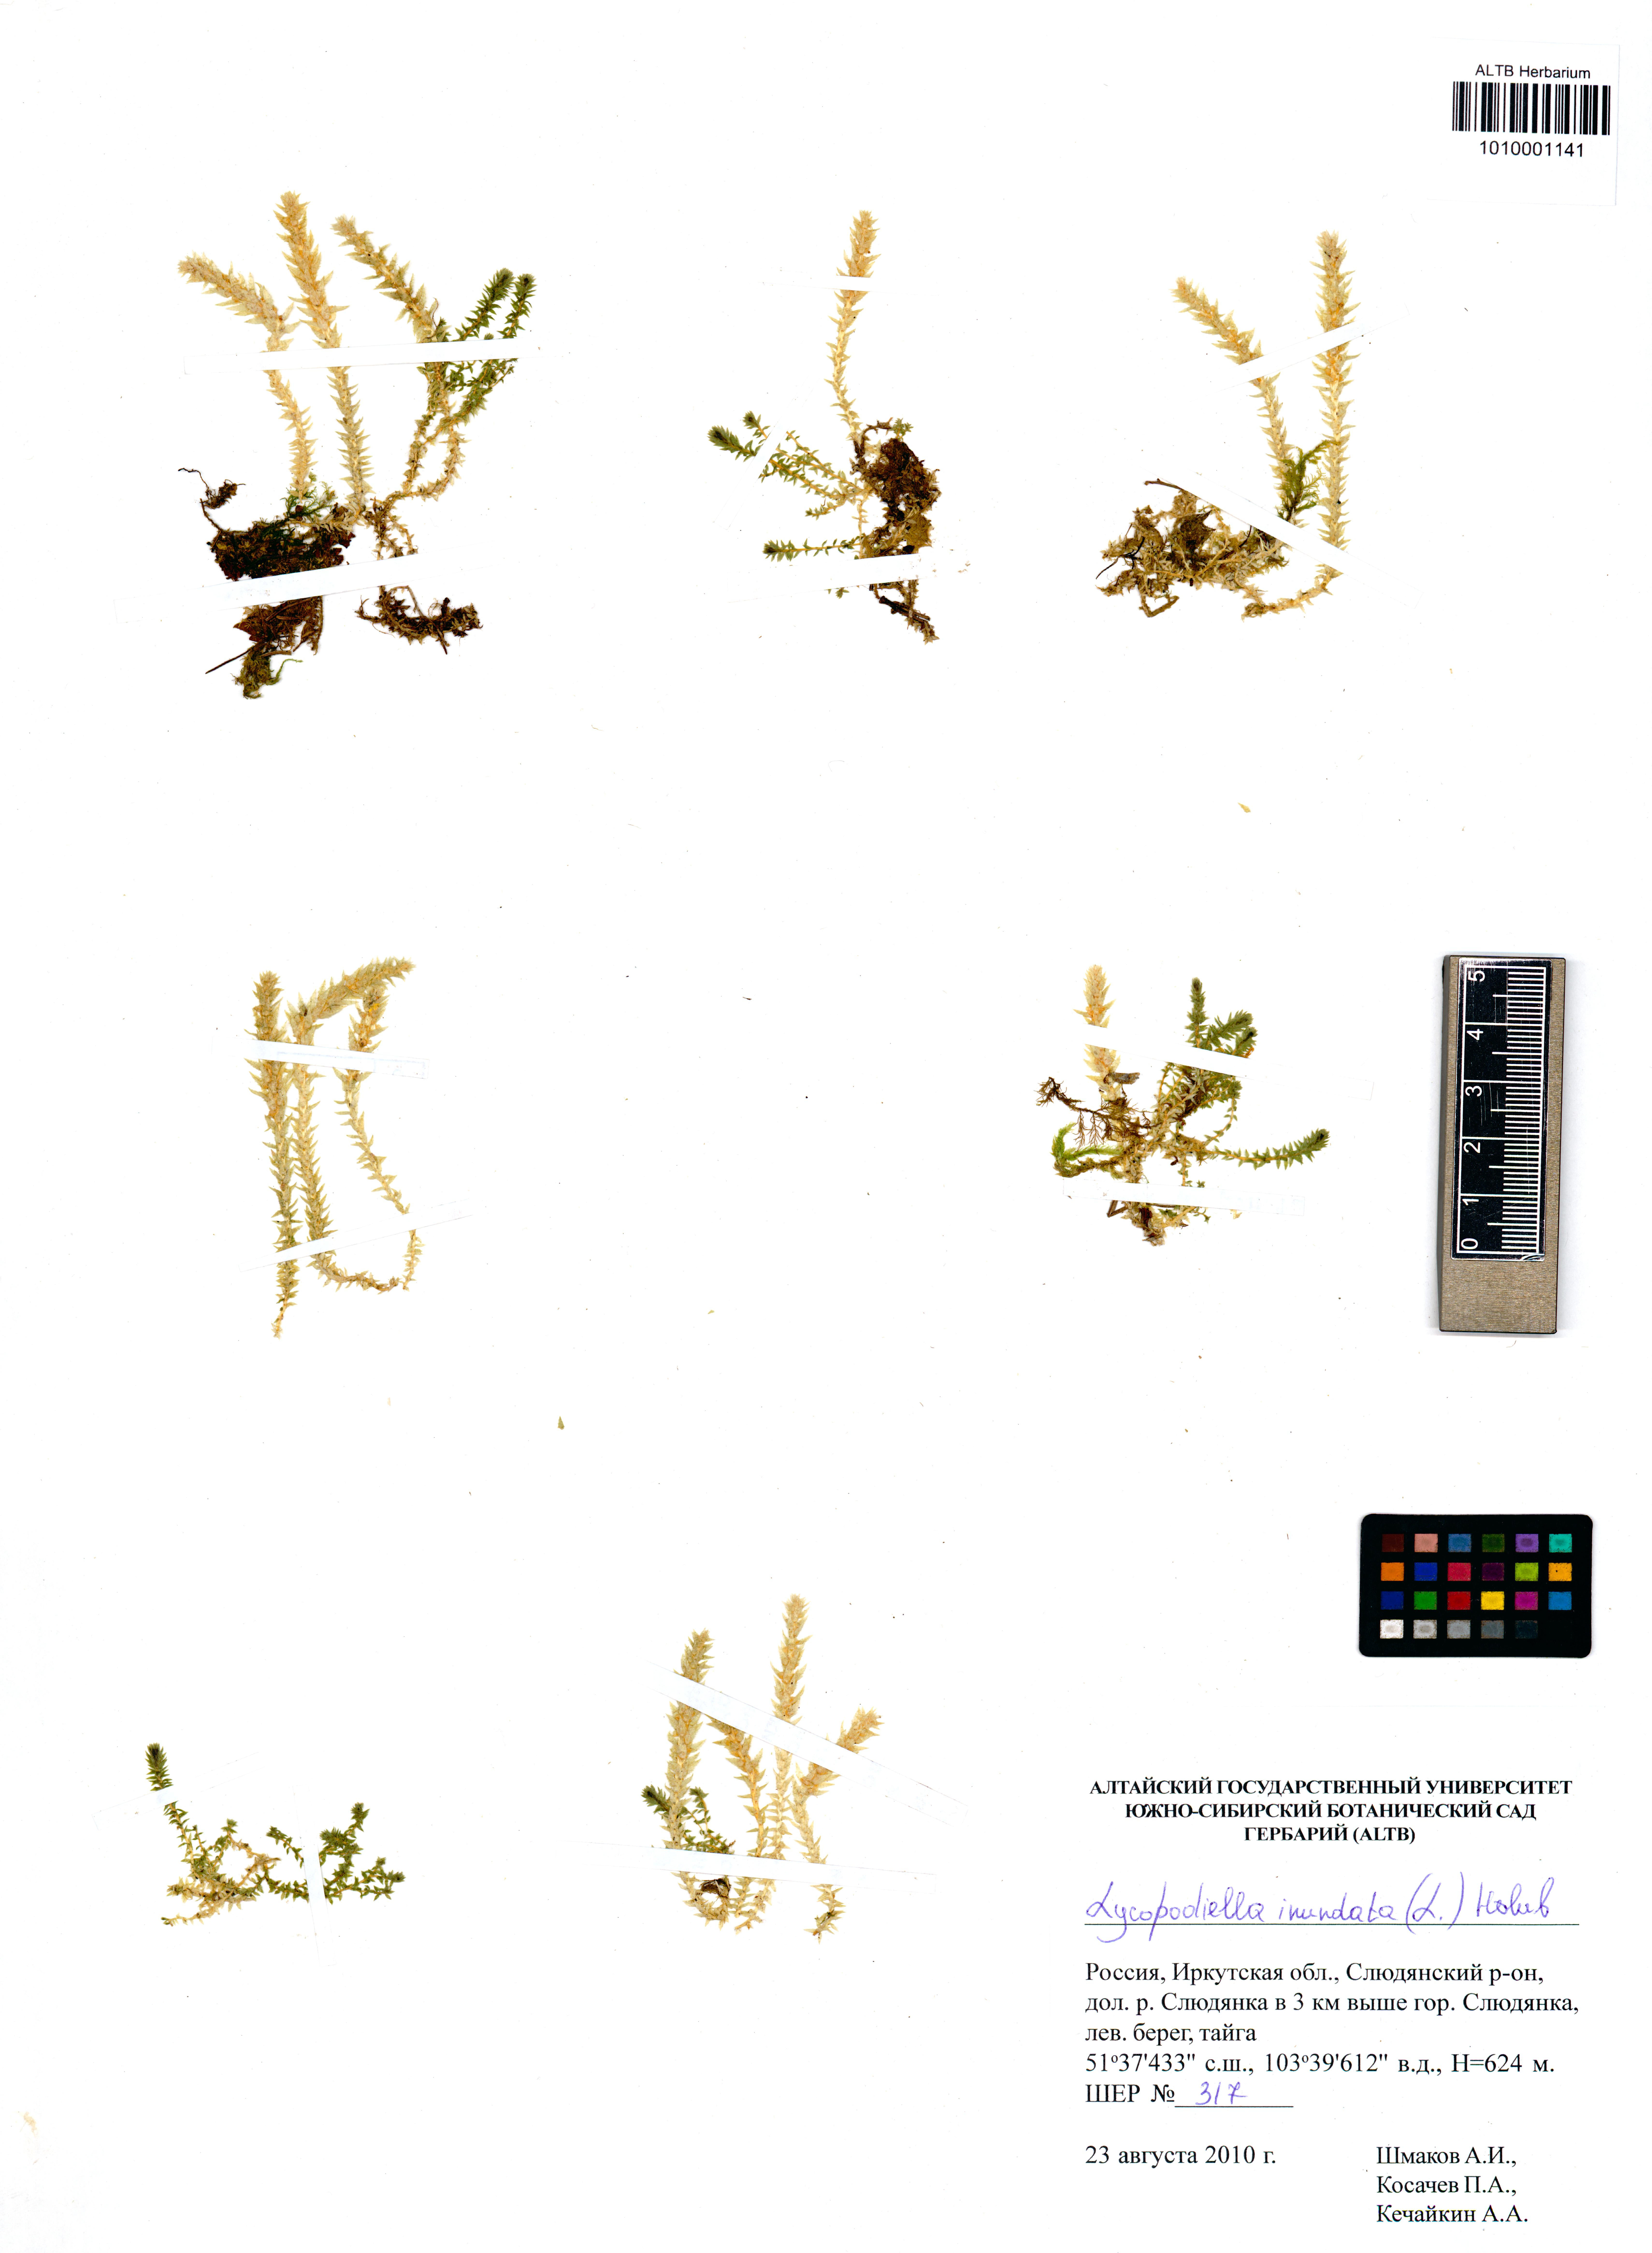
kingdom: Plantae
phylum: Tracheophyta
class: Lycopodiopsida
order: Lycopodiales
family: Lycopodiaceae
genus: Lycopodiella
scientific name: Lycopodiella inundata
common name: Marsh clubmoss
